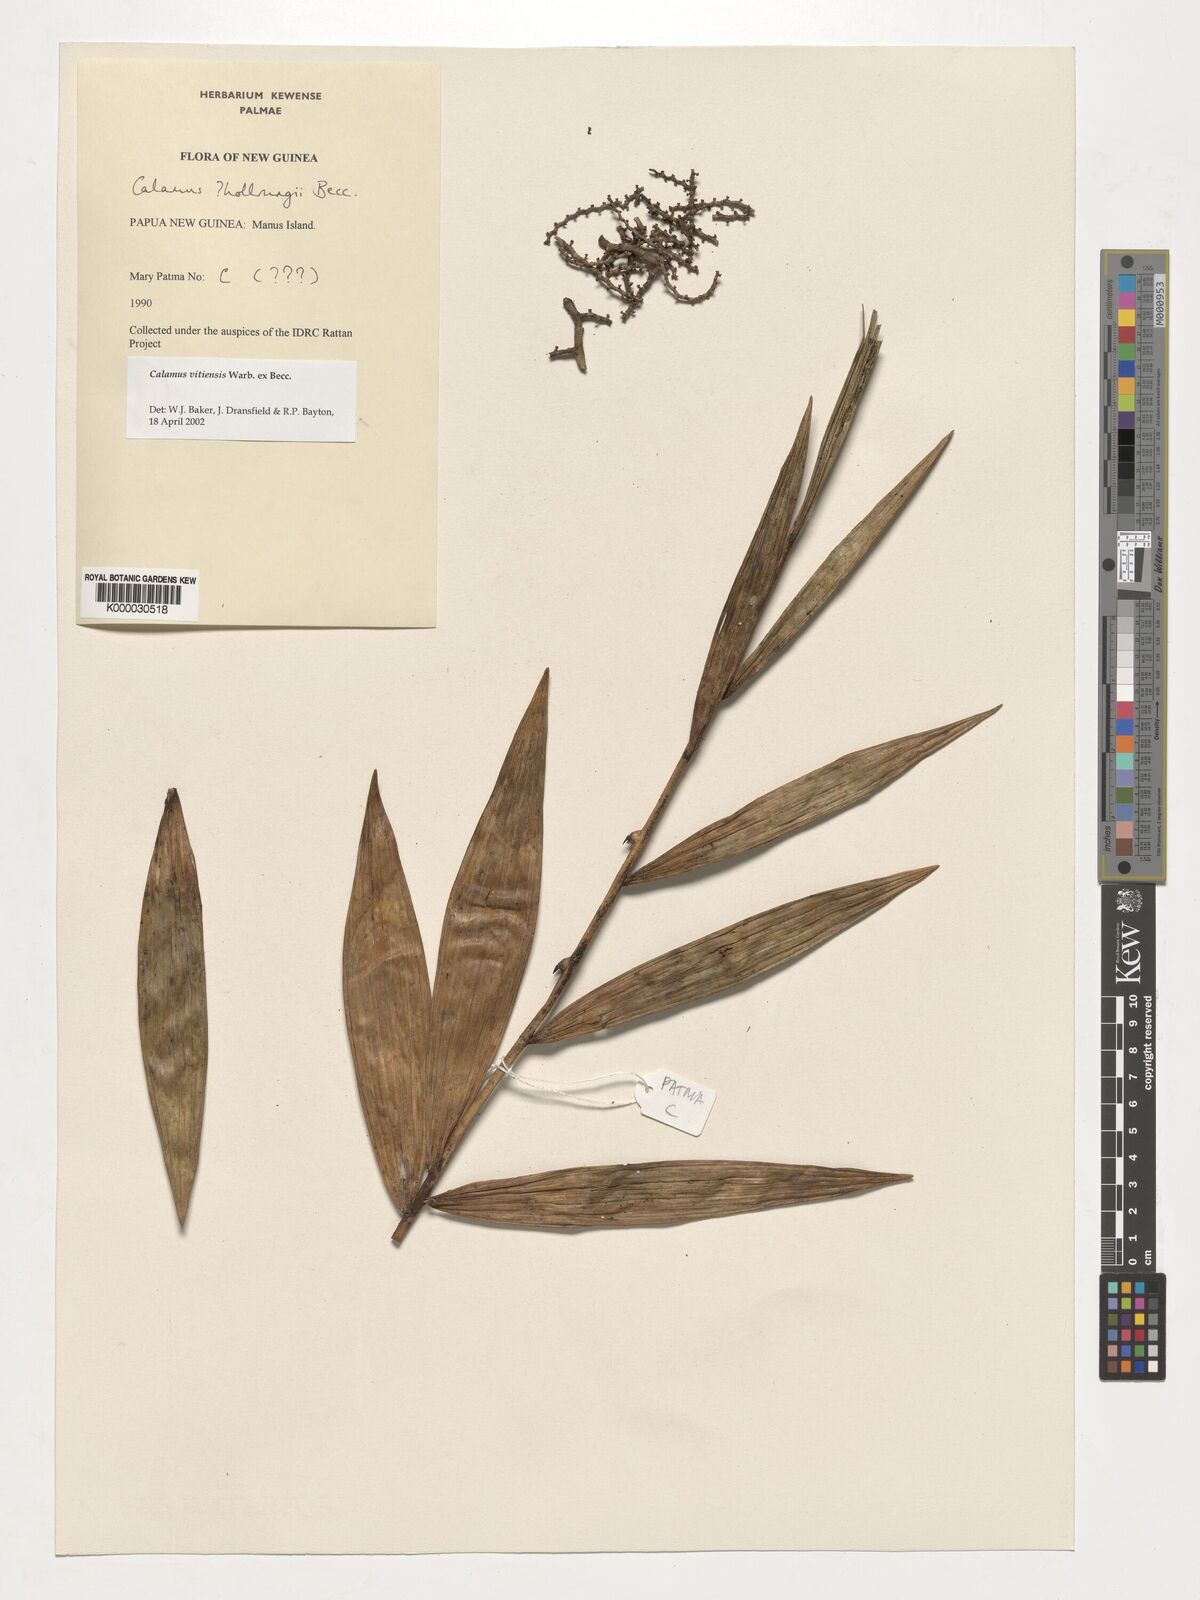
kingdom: Plantae
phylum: Tracheophyta
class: Liliopsida
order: Arecales
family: Arecaceae
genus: Calamus
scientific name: Calamus vitiensis
